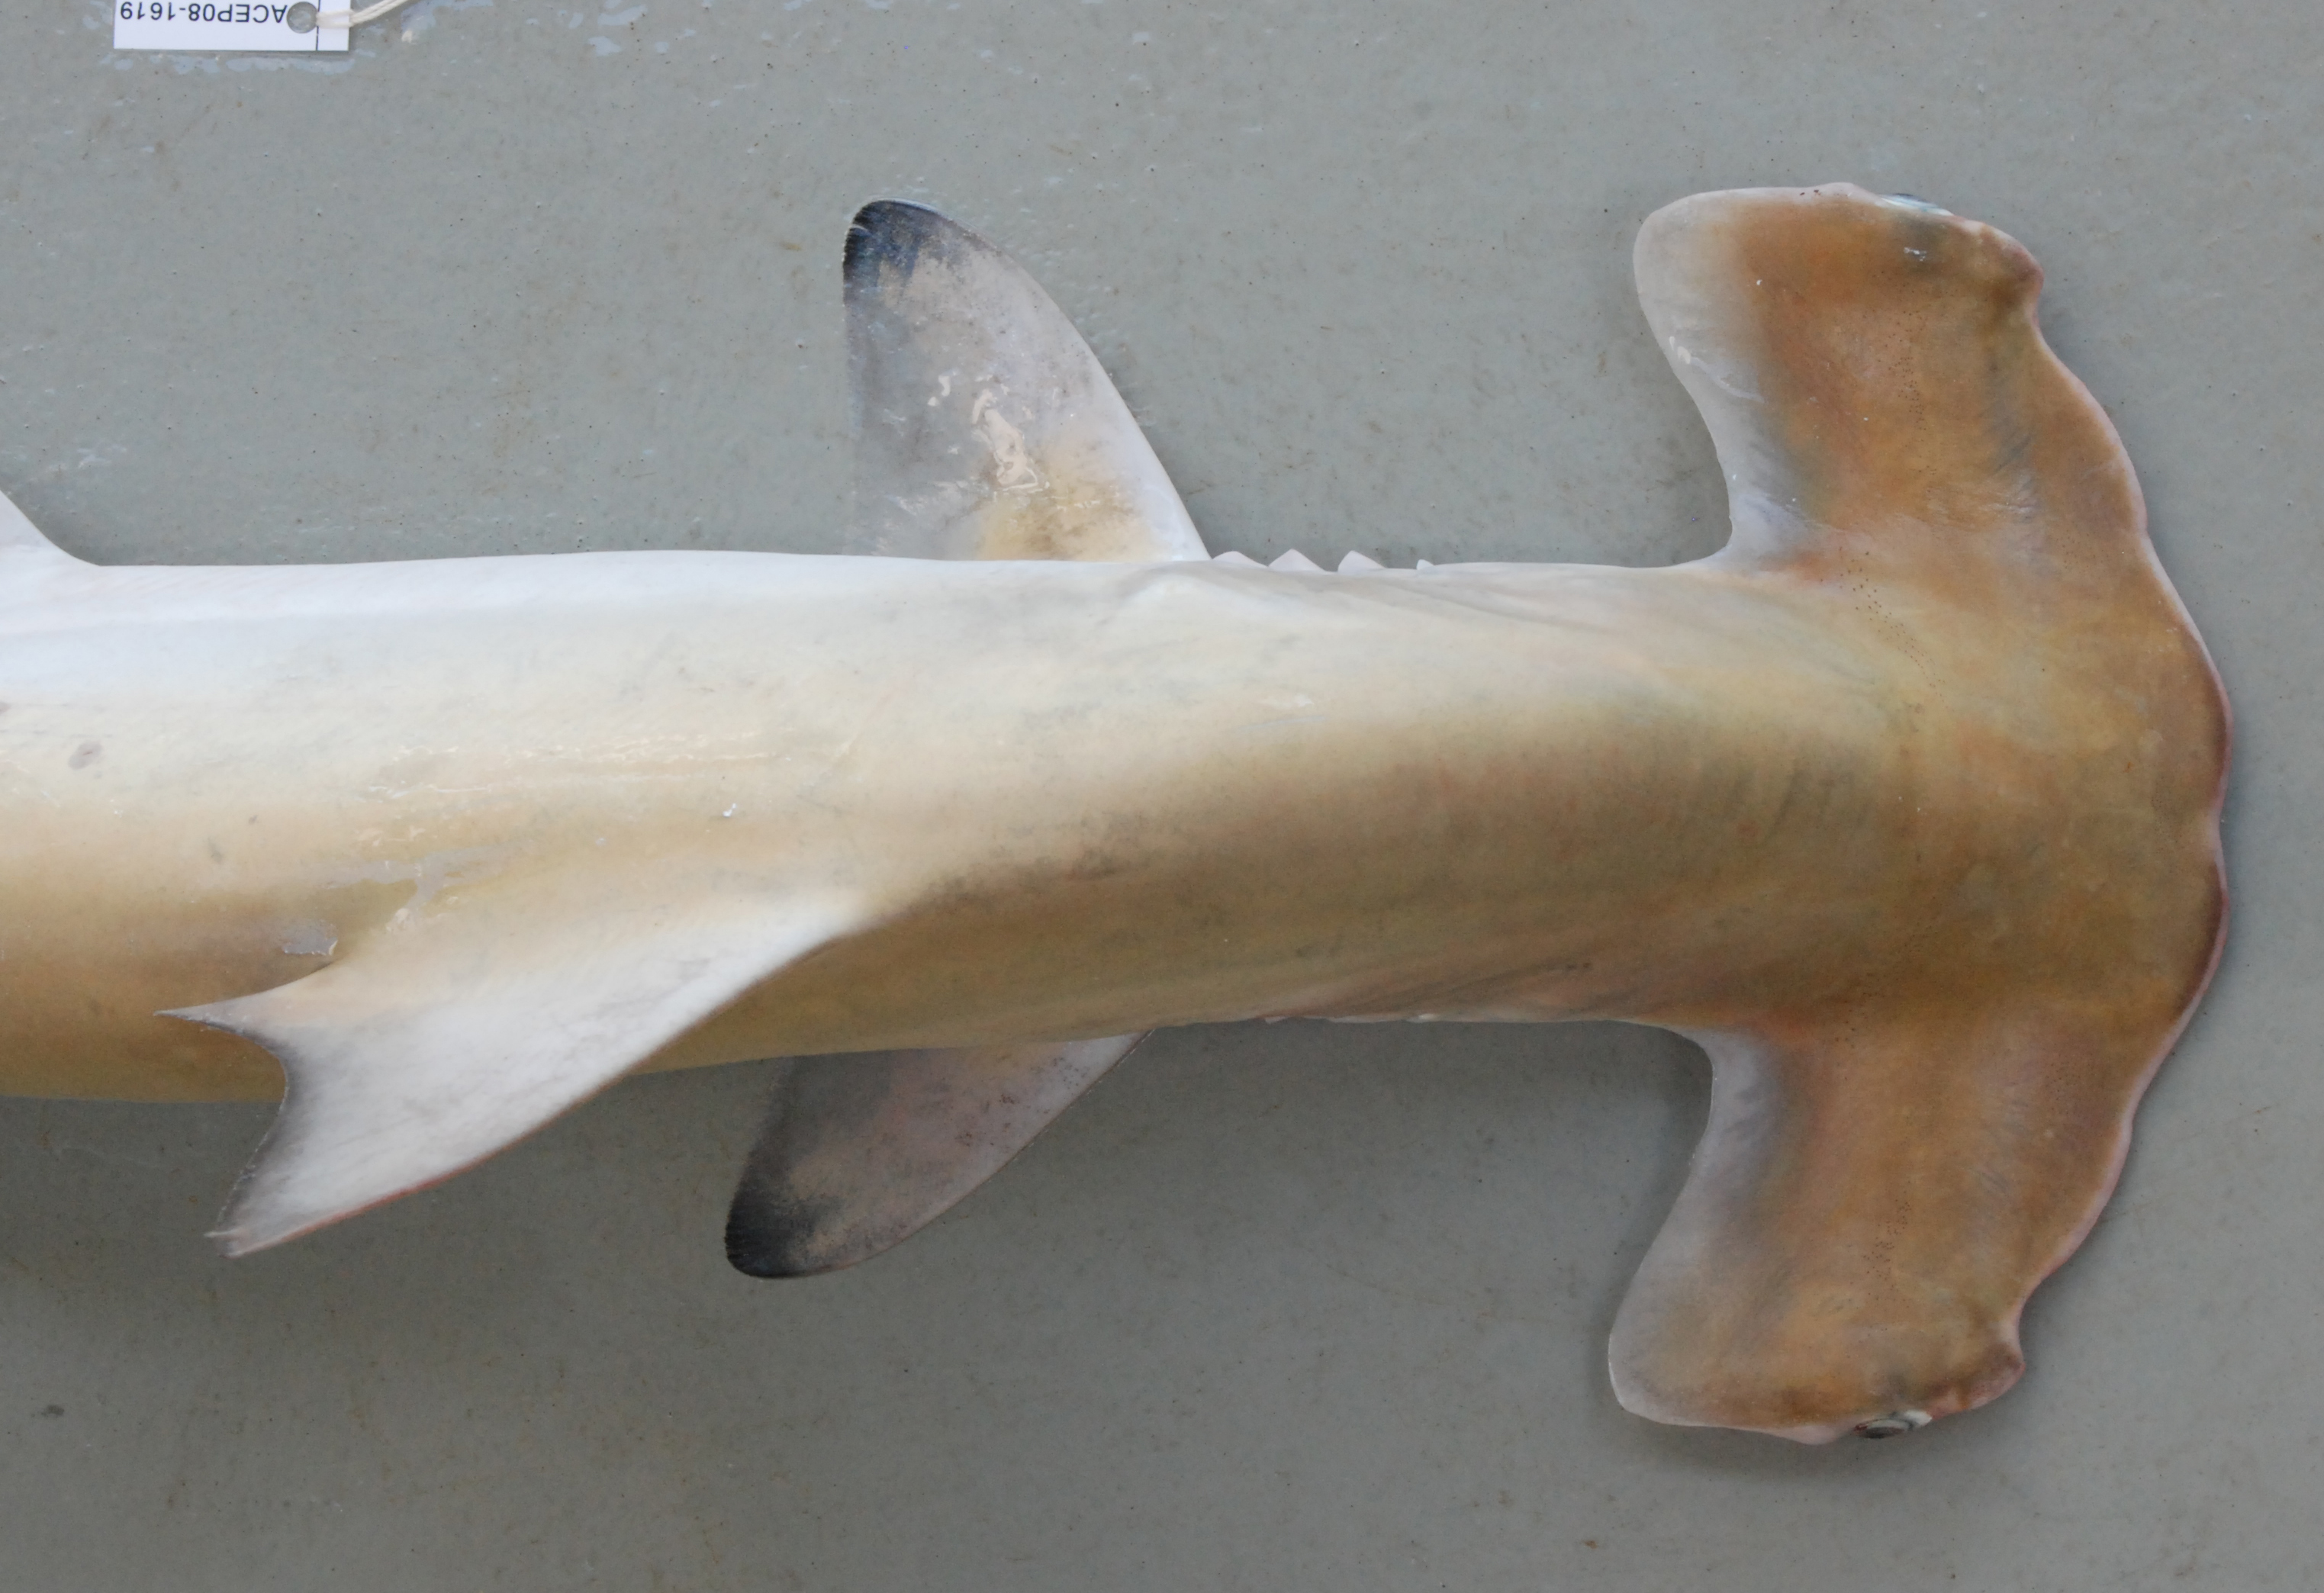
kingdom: Animalia
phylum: Chordata
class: Elasmobranchii
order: Carcharhiniformes
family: Sphyrnidae
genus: Sphyrna
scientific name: Sphyrna lewini
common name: Scalloped hammerhead
